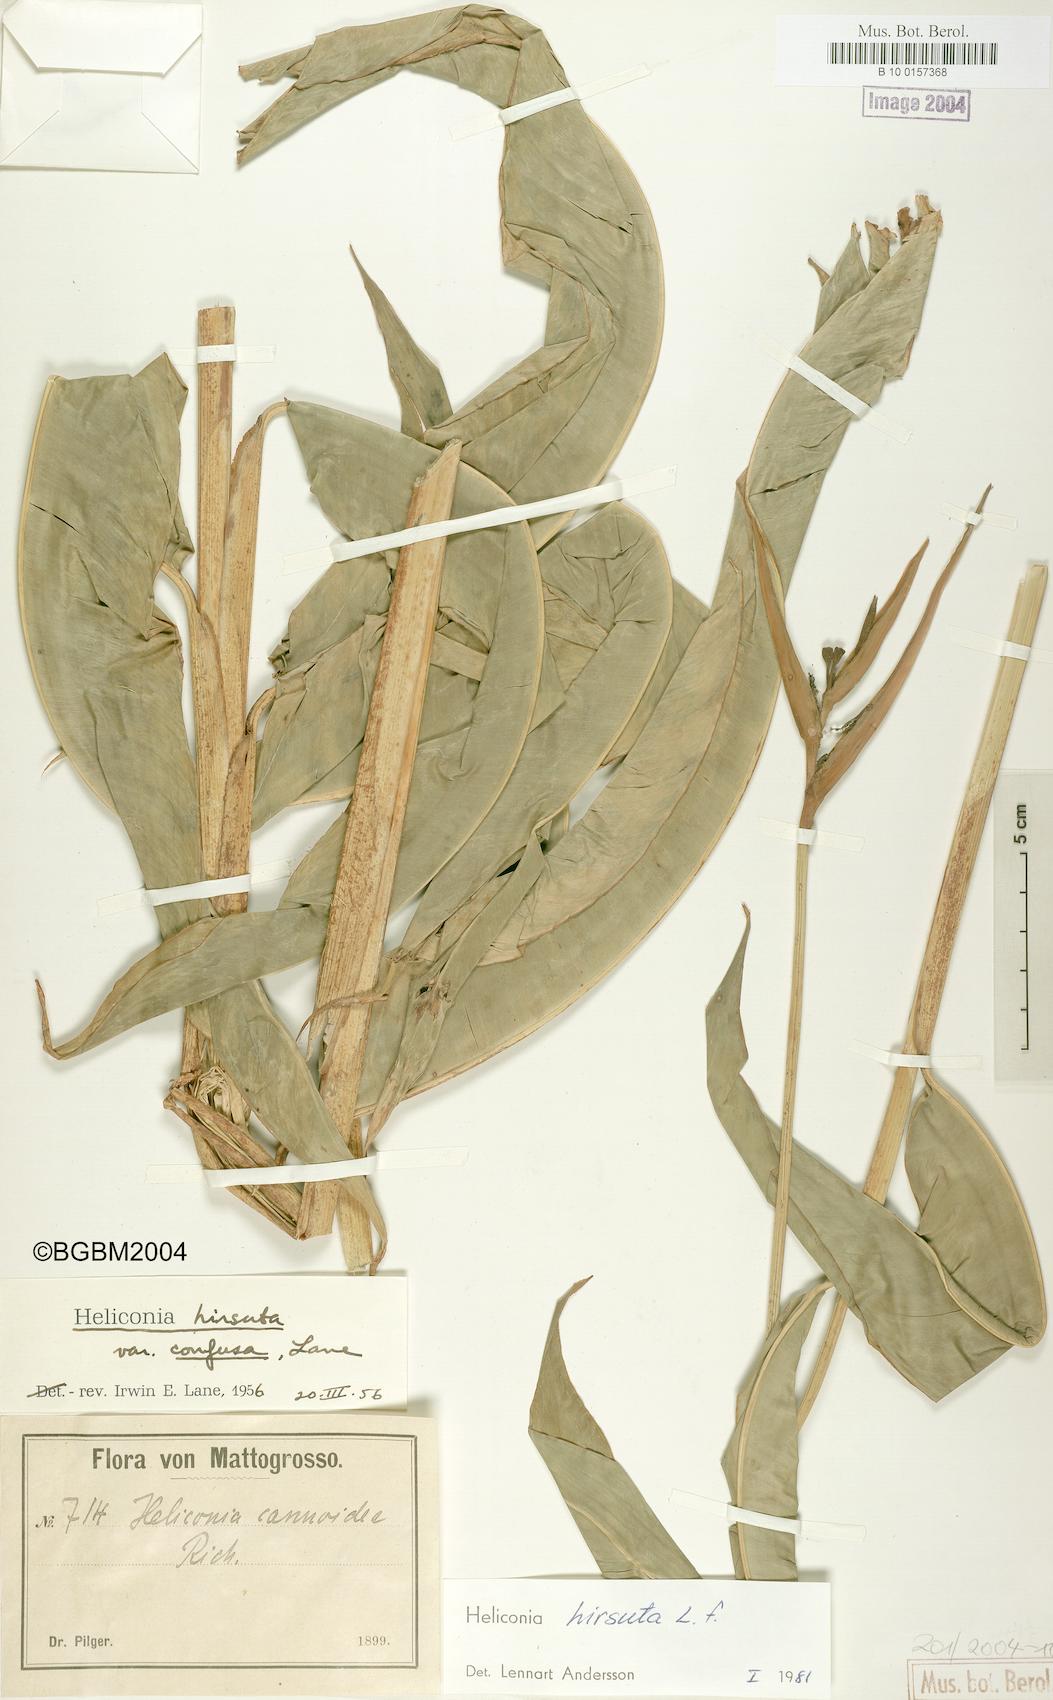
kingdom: Plantae
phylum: Tracheophyta
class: Liliopsida
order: Zingiberales
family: Heliconiaceae
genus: Heliconia
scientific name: Heliconia hirsuta
